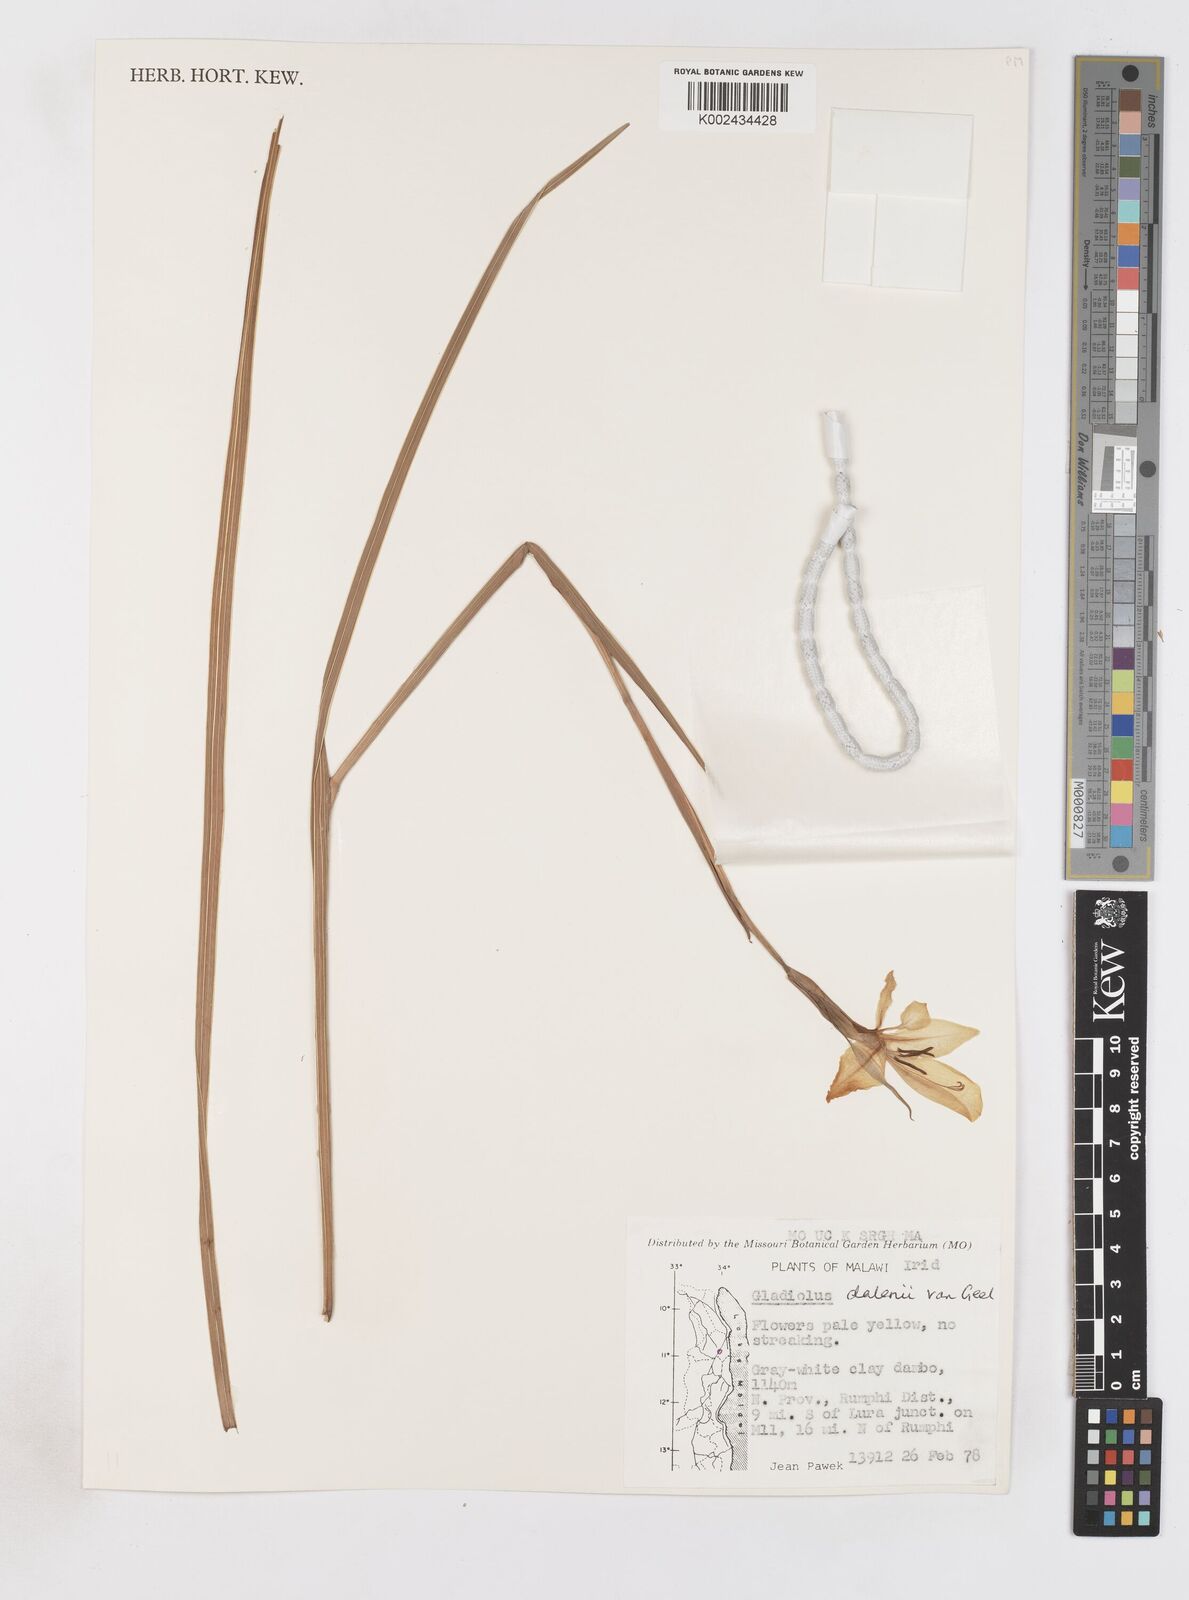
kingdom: Plantae
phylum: Tracheophyta
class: Liliopsida
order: Asparagales
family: Iridaceae
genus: Gladiolus
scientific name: Gladiolus dalenii
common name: Cornflag
